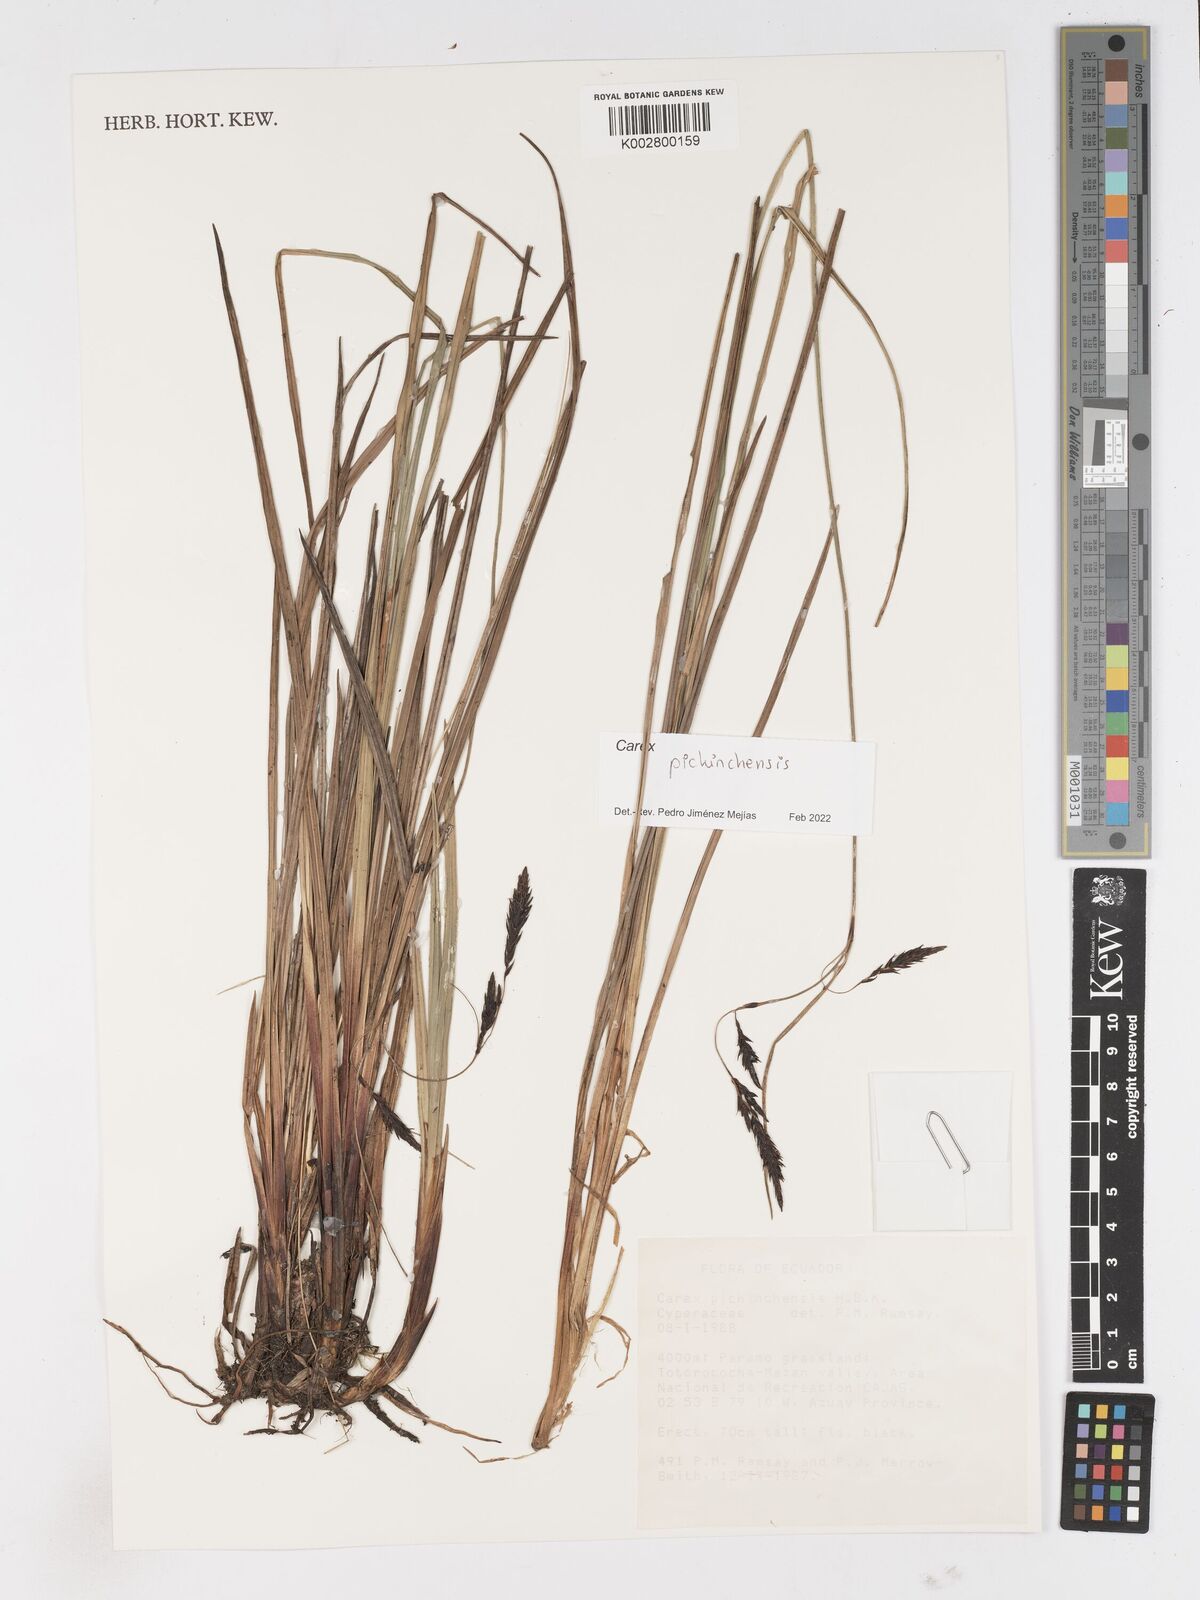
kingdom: Plantae
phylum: Tracheophyta
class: Liliopsida
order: Poales
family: Cyperaceae
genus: Carex
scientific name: Carex pichinchensis
